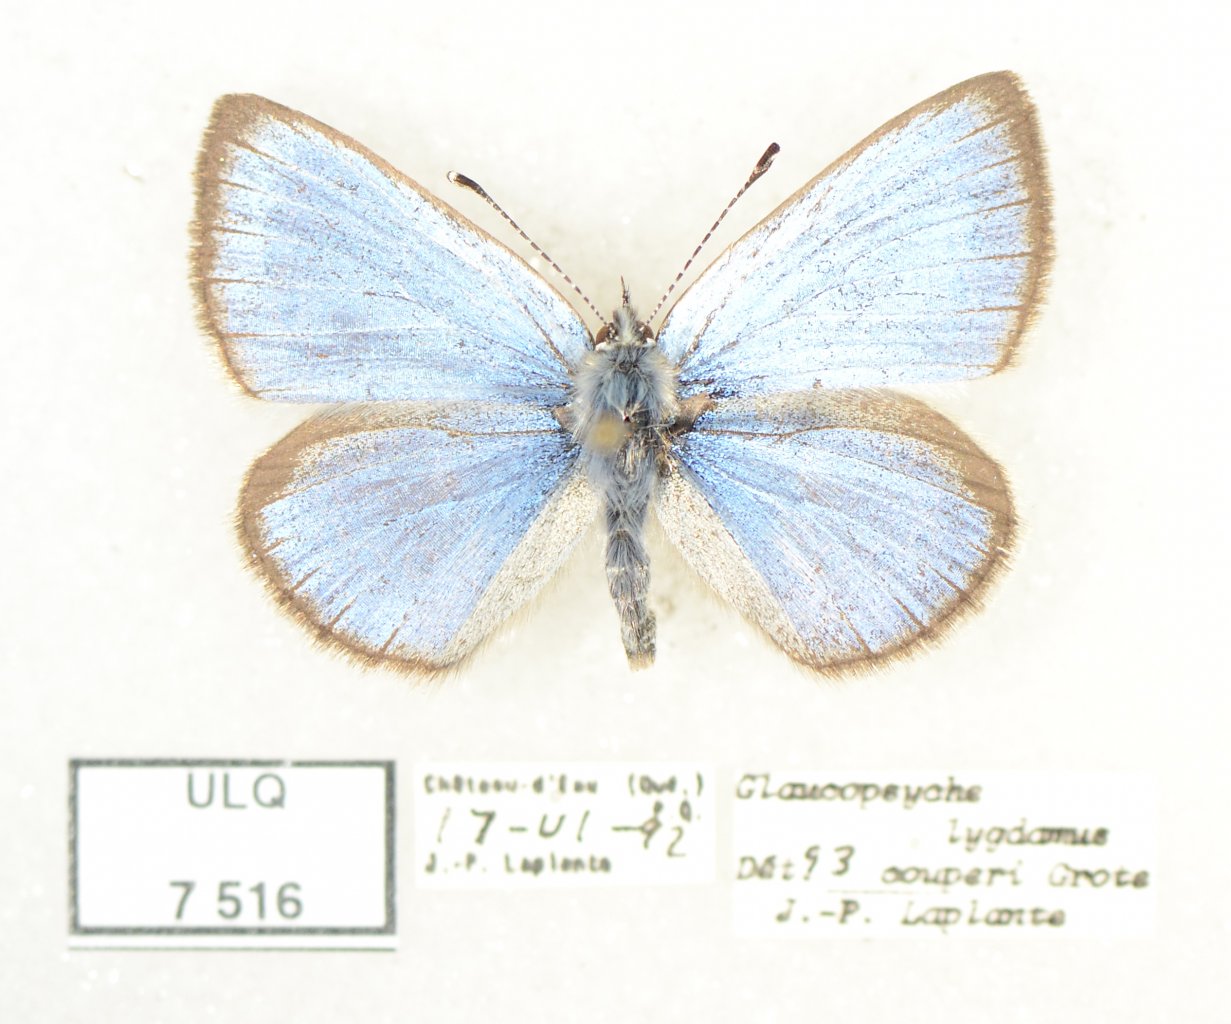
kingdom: Animalia
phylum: Arthropoda
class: Insecta
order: Lepidoptera
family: Lycaenidae
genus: Glaucopsyche
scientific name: Glaucopsyche lygdamus
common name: Silvery Blue
